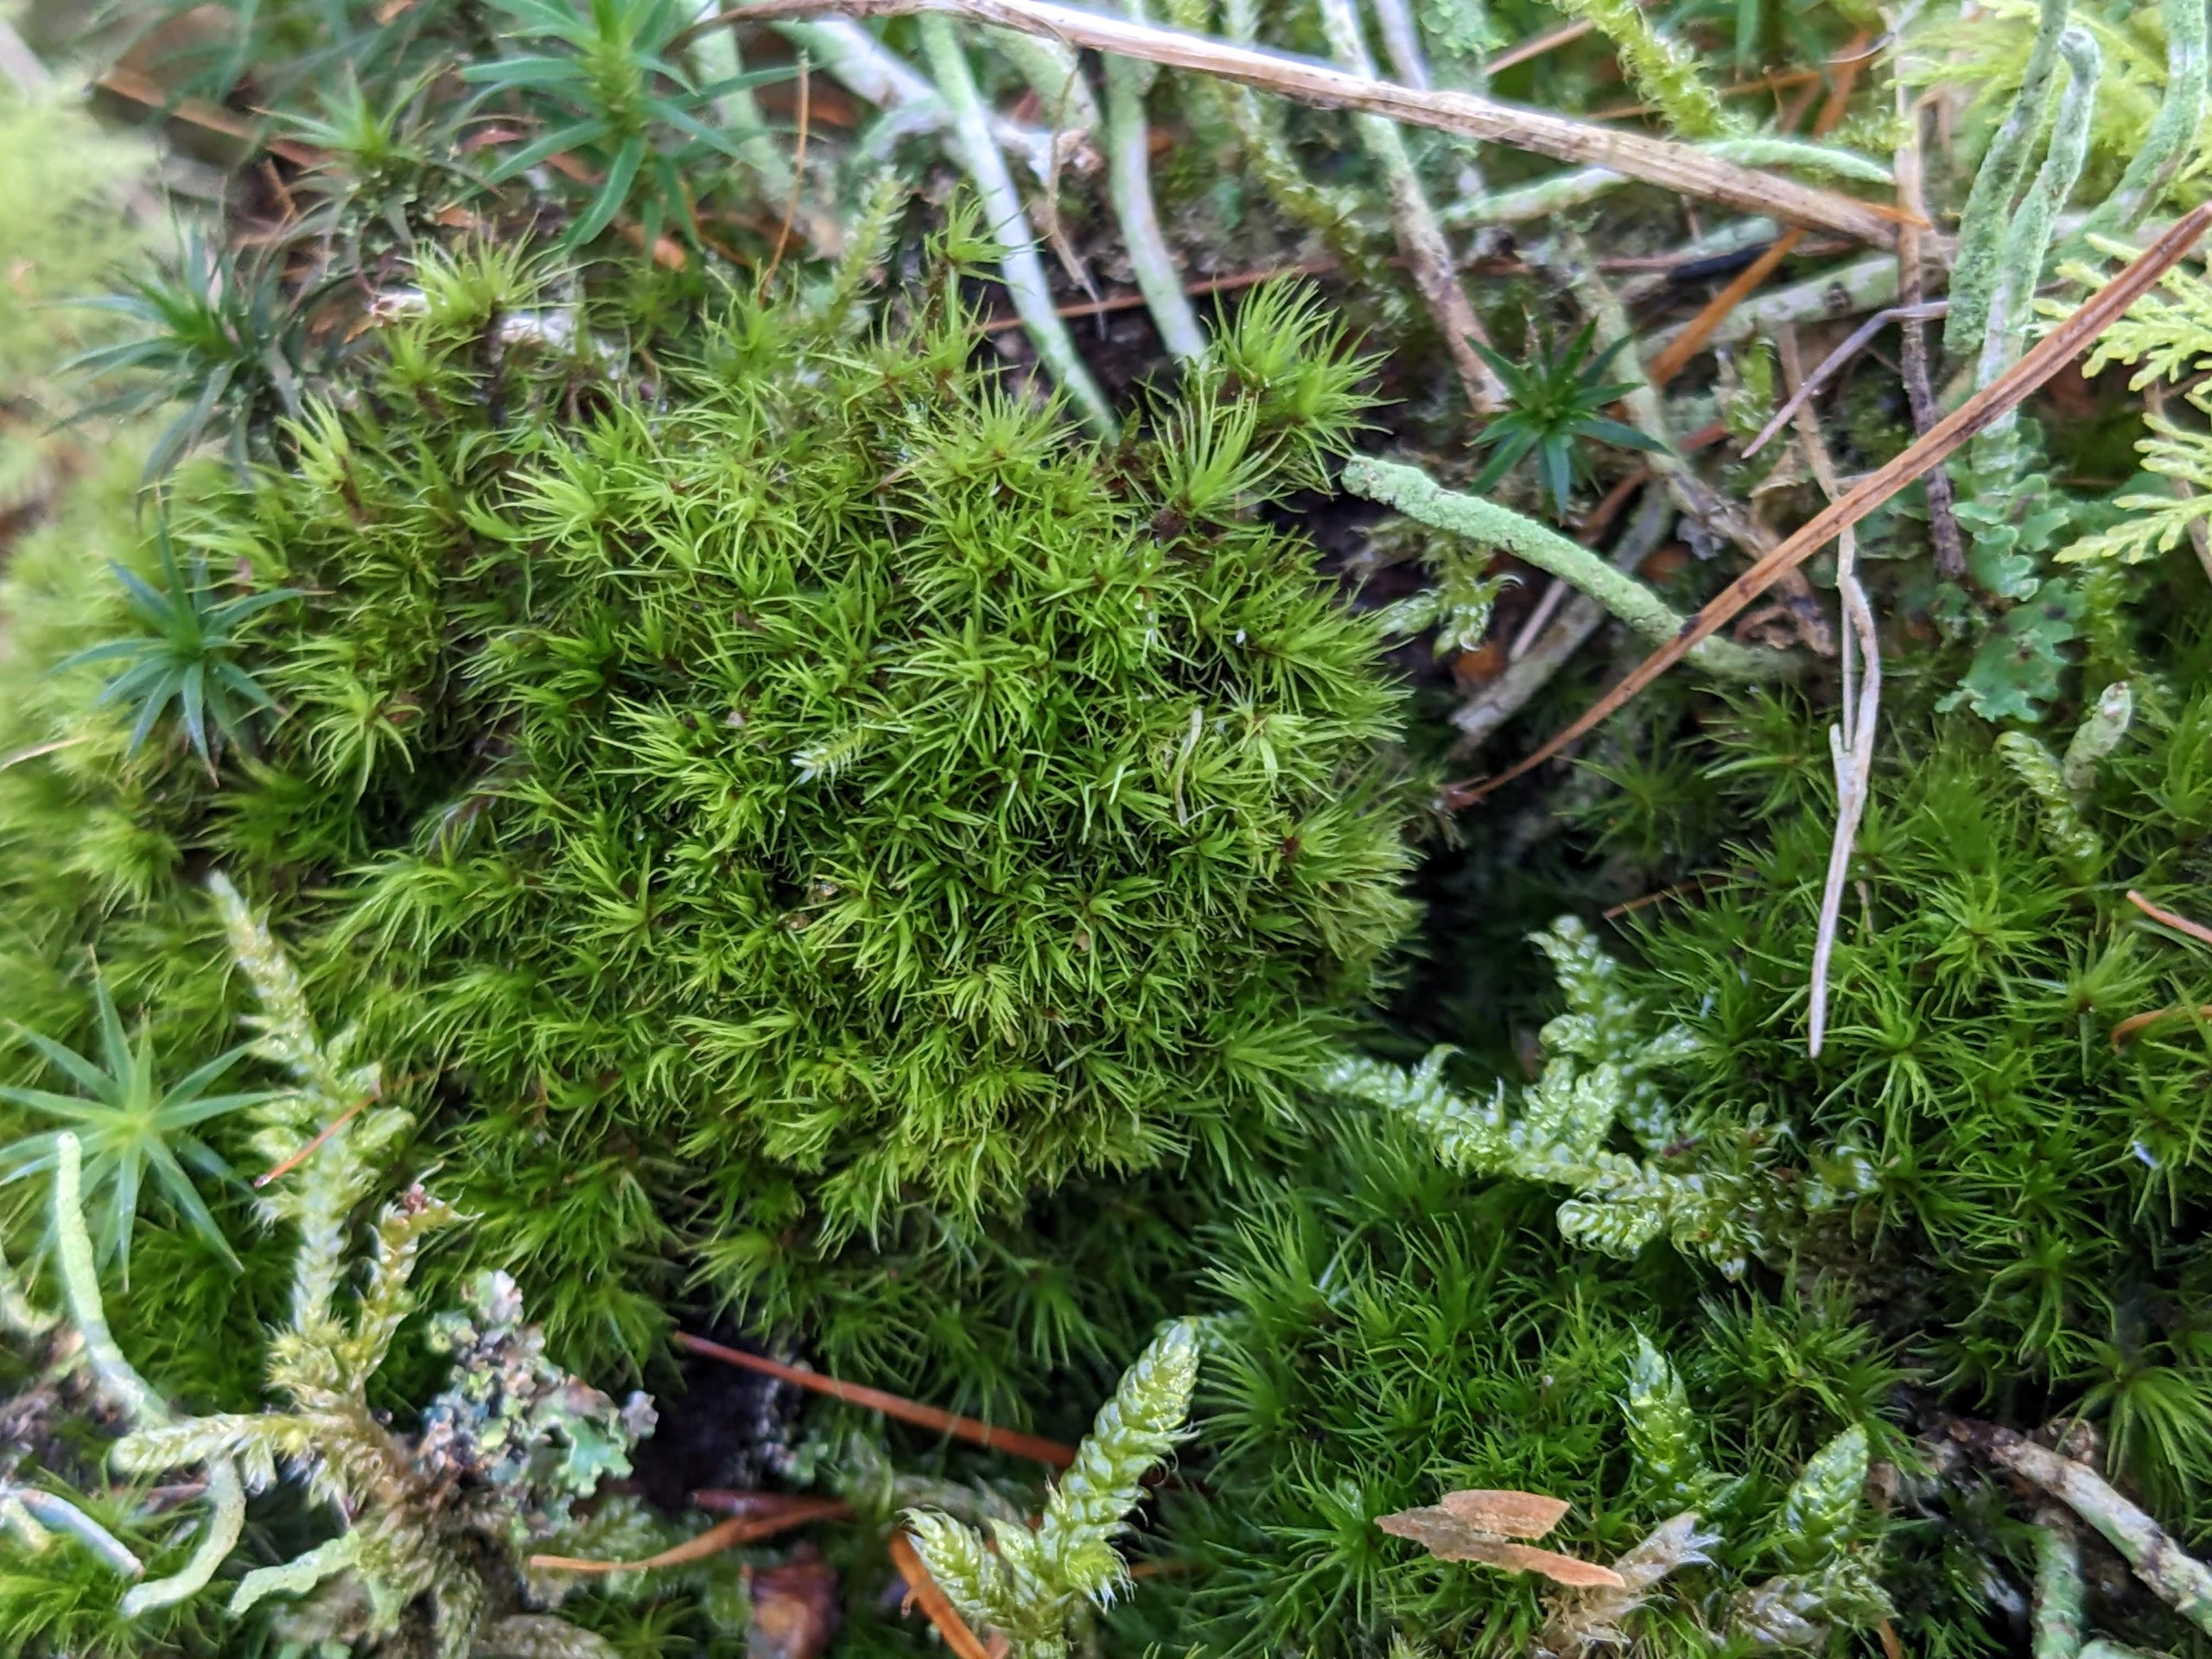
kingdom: Plantae
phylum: Bryophyta
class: Bryopsida
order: Dicranales
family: Dicranaceae
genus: Orthodicranum
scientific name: Orthodicranum montanum
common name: Tæt tyndvinge
